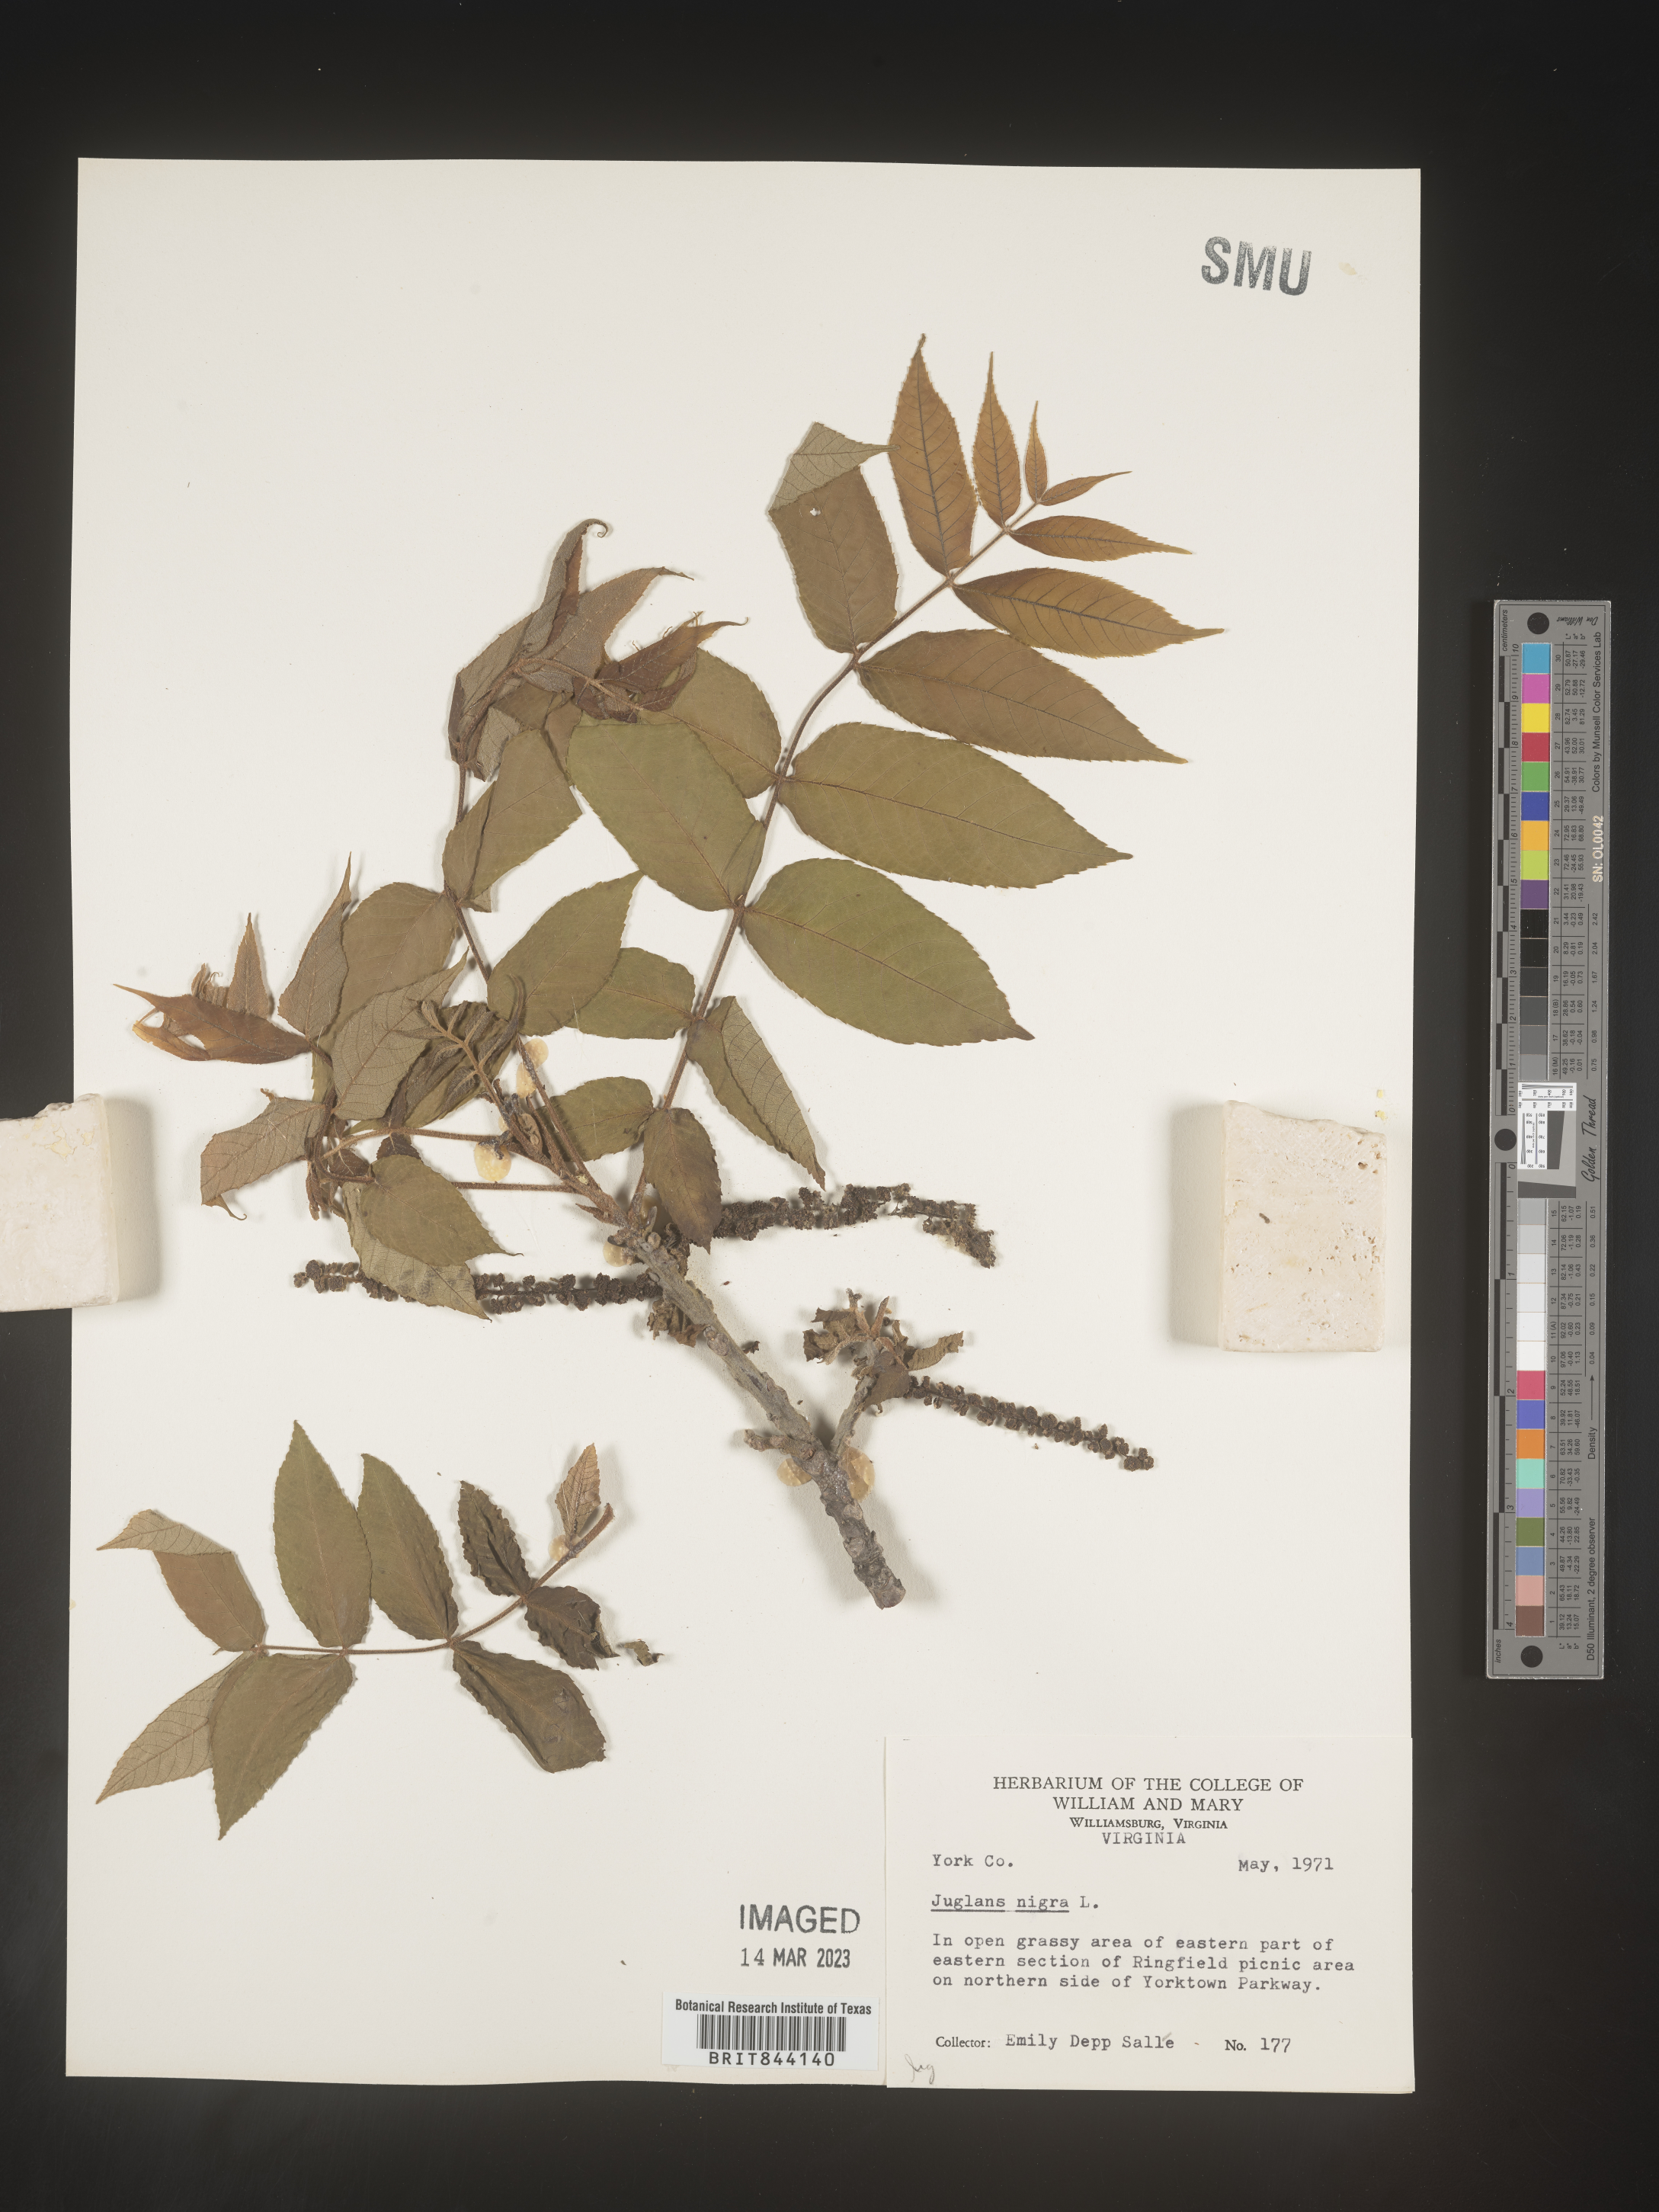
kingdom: Plantae
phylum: Tracheophyta
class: Magnoliopsida
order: Fagales
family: Juglandaceae
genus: Juglans
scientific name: Juglans nigra
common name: Black walnut
